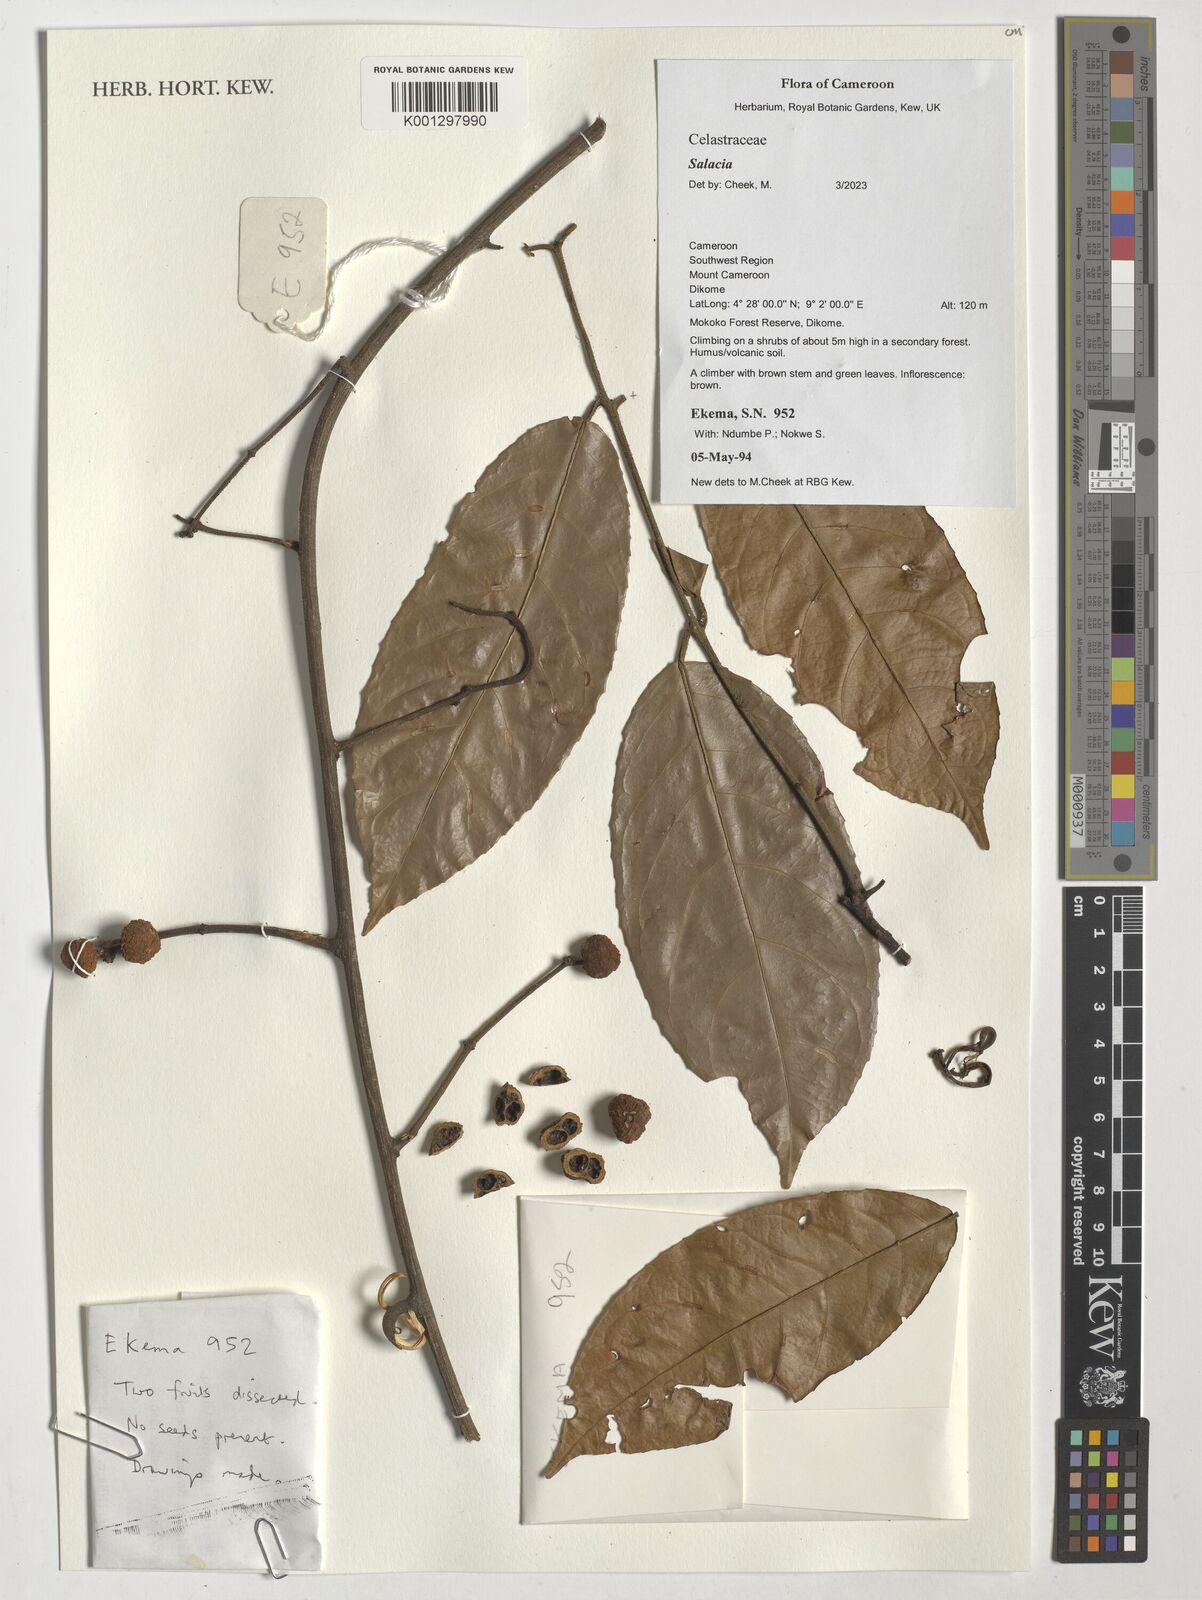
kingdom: Plantae
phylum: Tracheophyta
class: Magnoliopsida
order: Celastrales
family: Celastraceae
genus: Salacia
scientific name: Salacia
